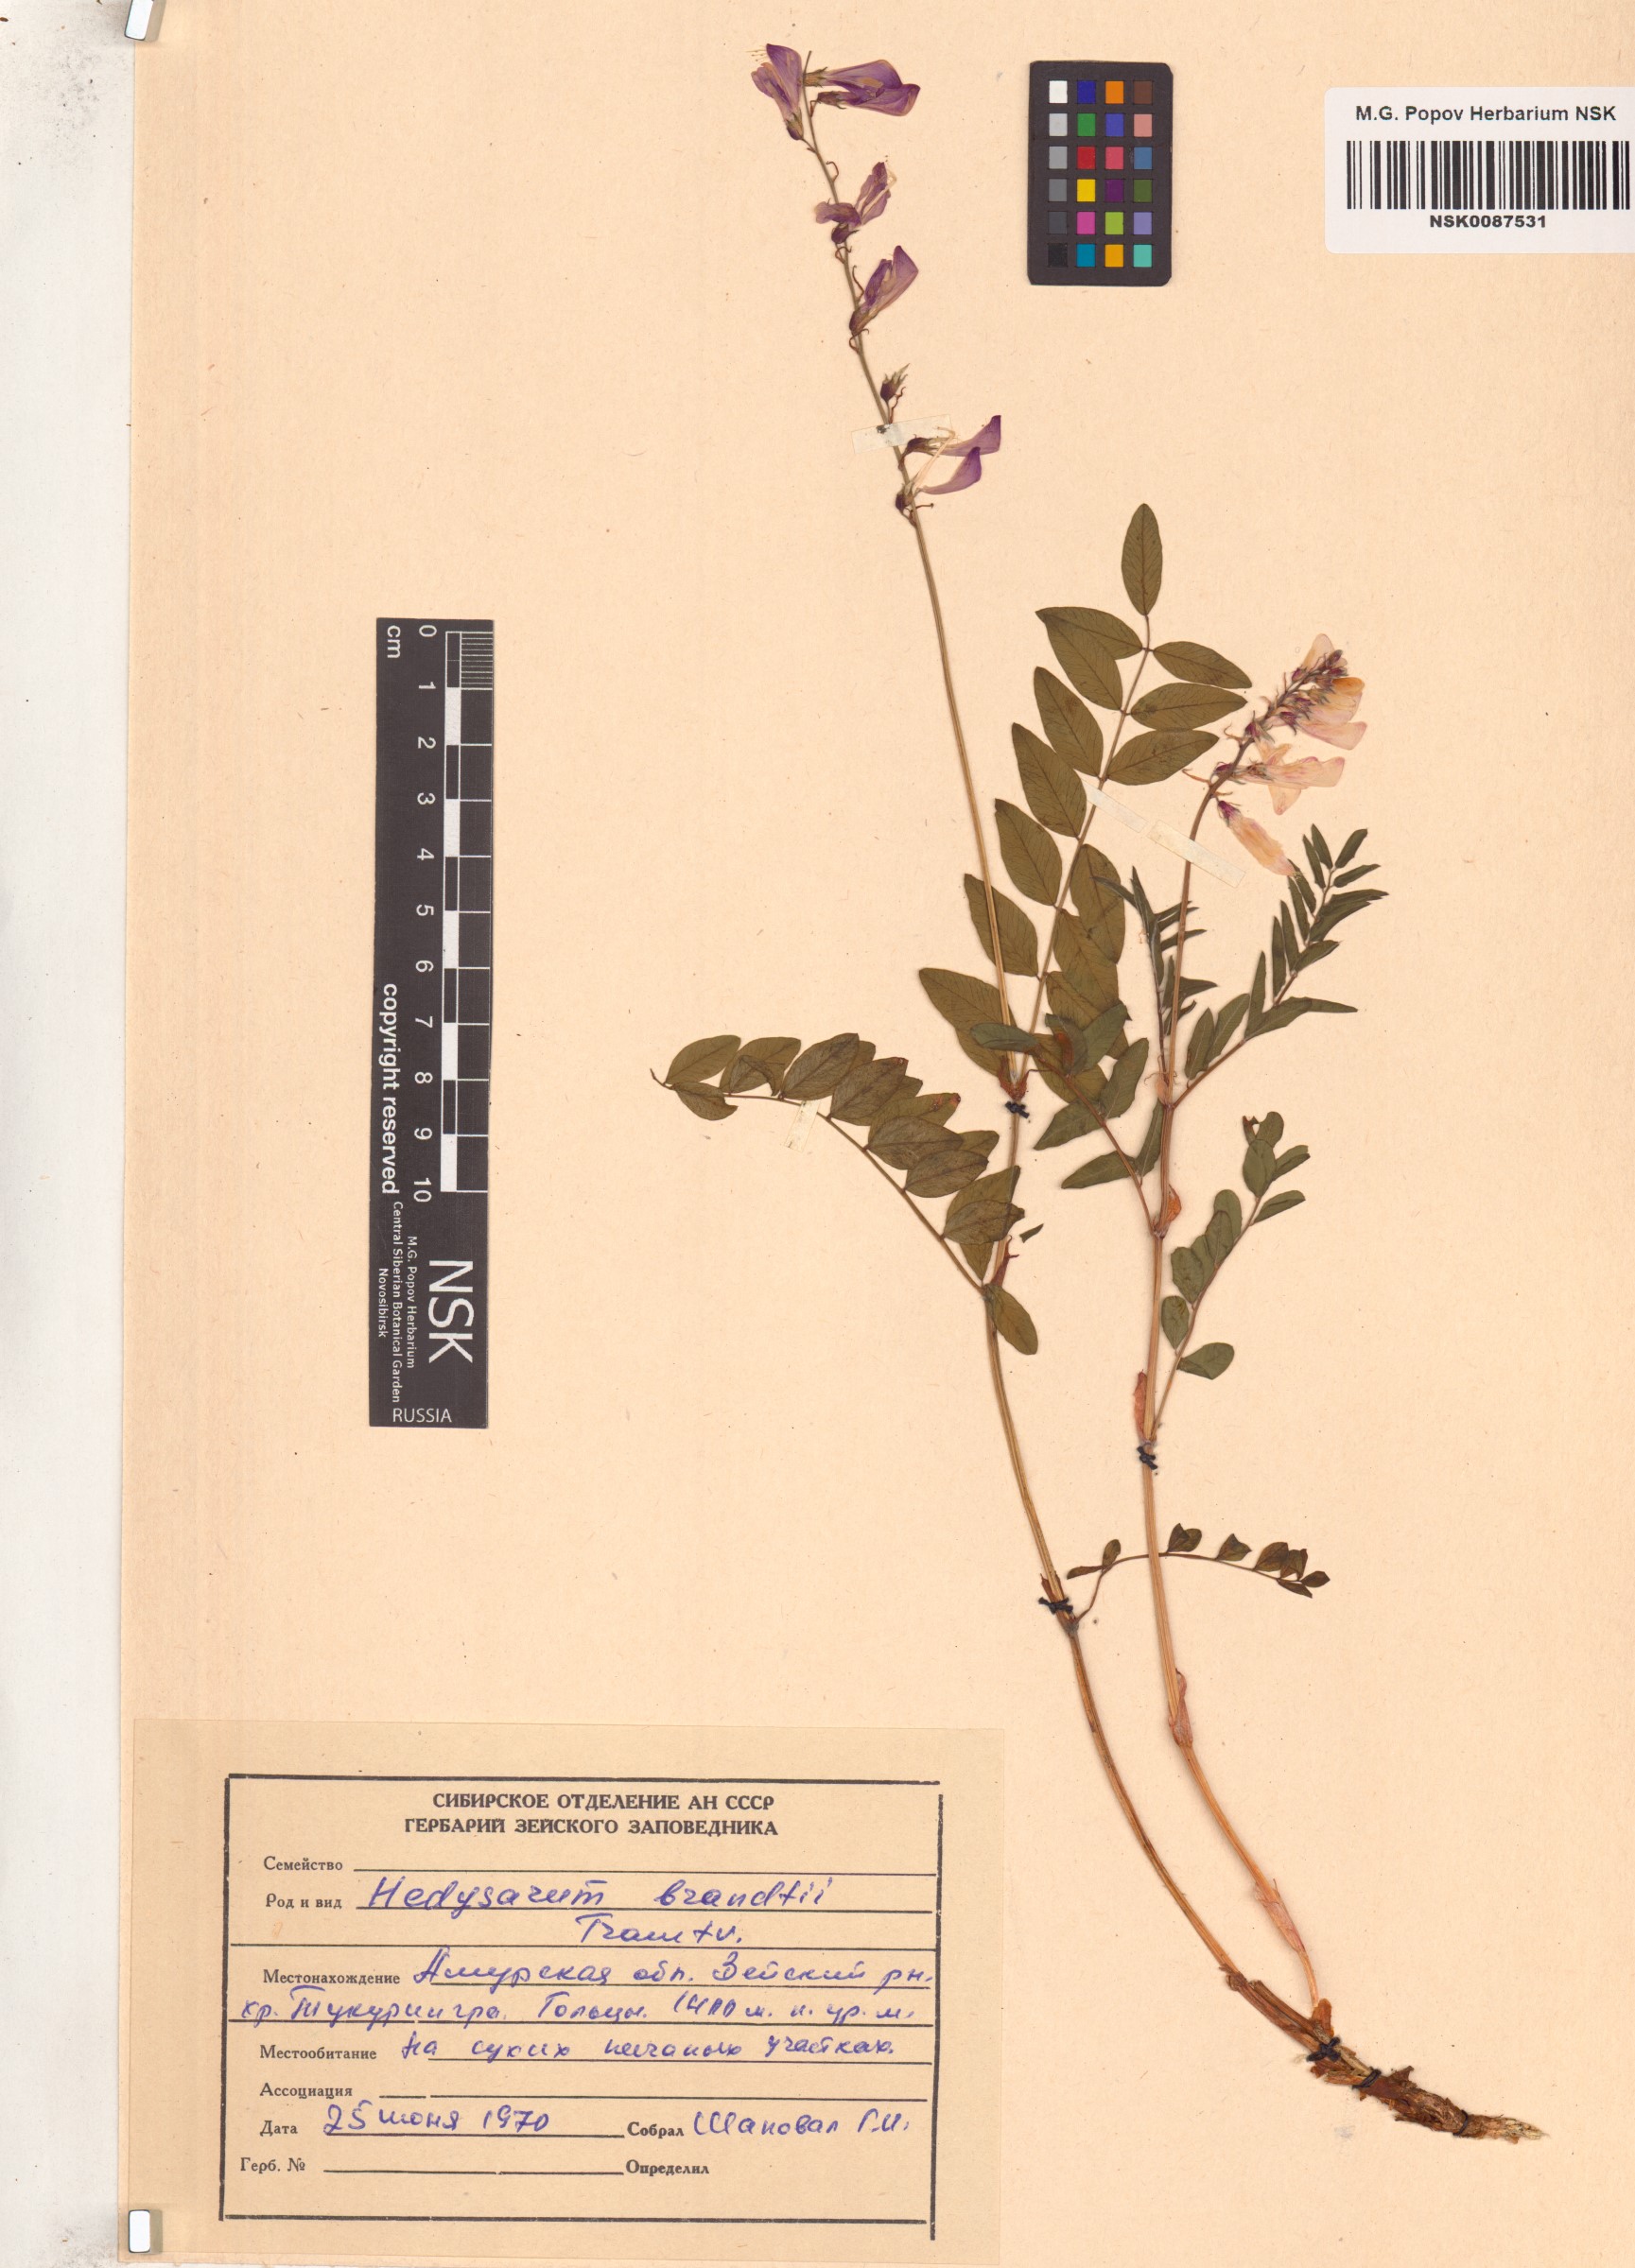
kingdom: Plantae
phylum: Tracheophyta
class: Magnoliopsida
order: Fabales
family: Fabaceae
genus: Hedysarum
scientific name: Hedysarum branthii
